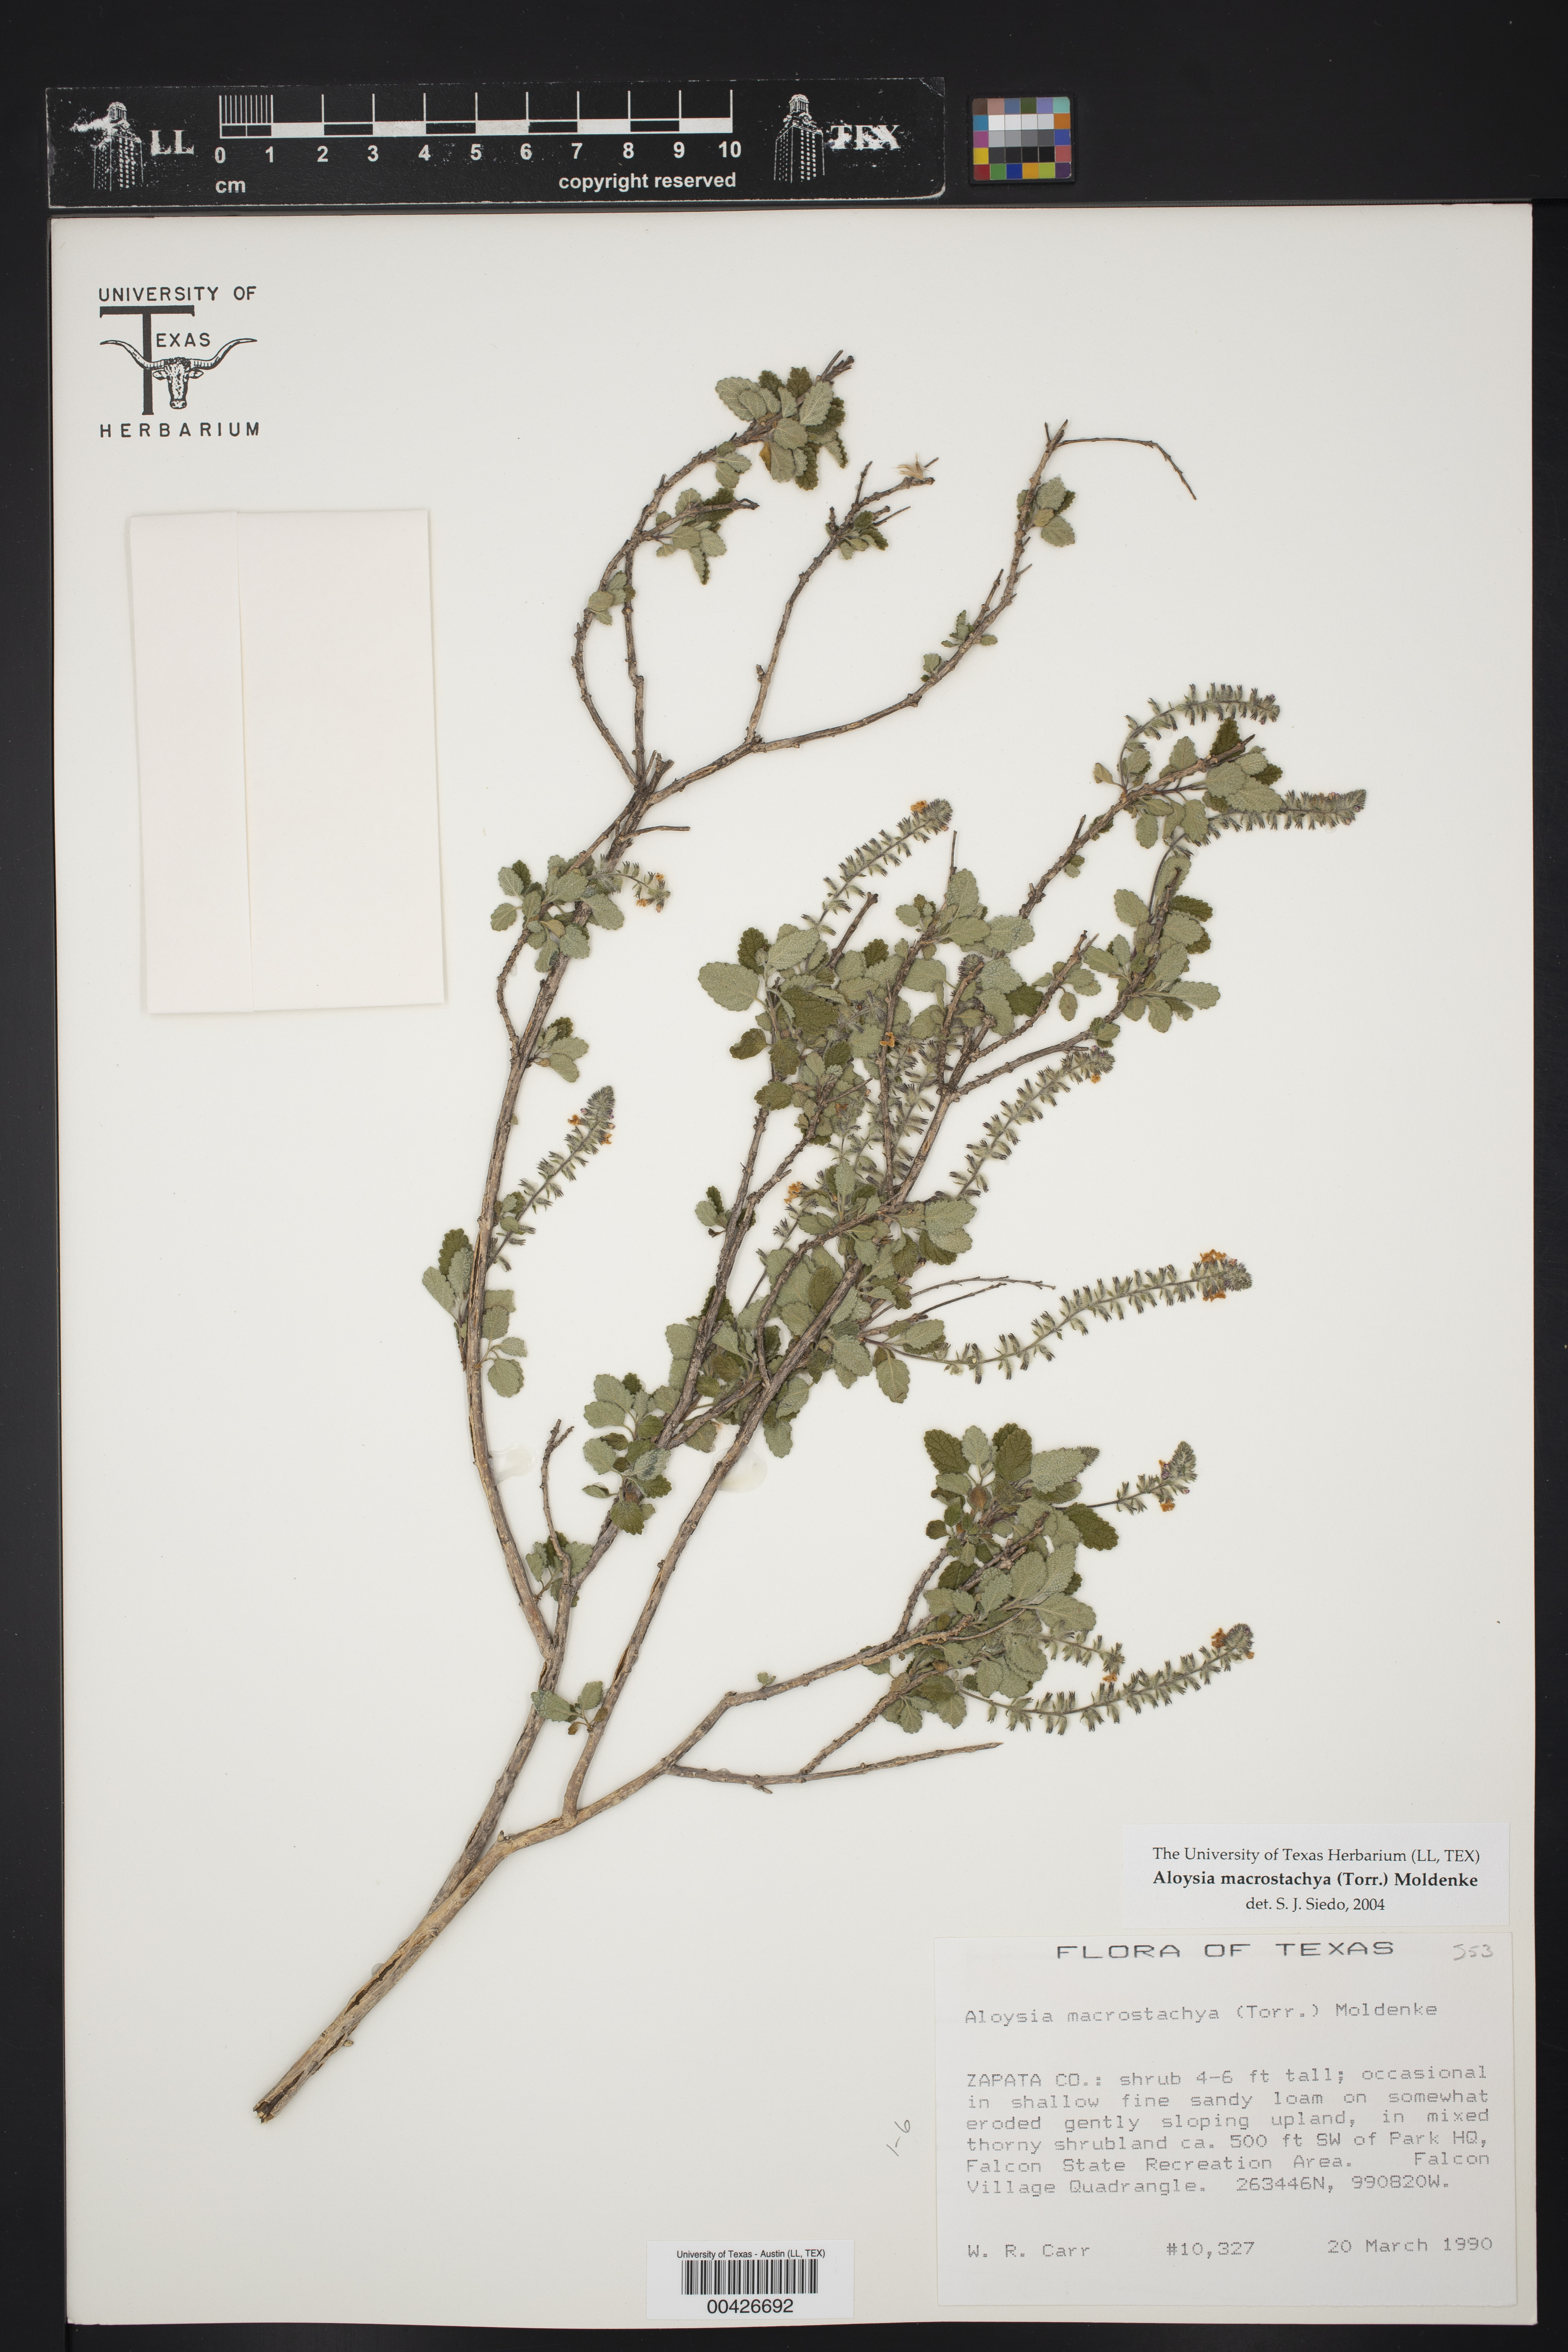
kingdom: Plantae
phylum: Tracheophyta
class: Magnoliopsida
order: Lamiales
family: Verbenaceae
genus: Aloysia
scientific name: Aloysia macrostachya
